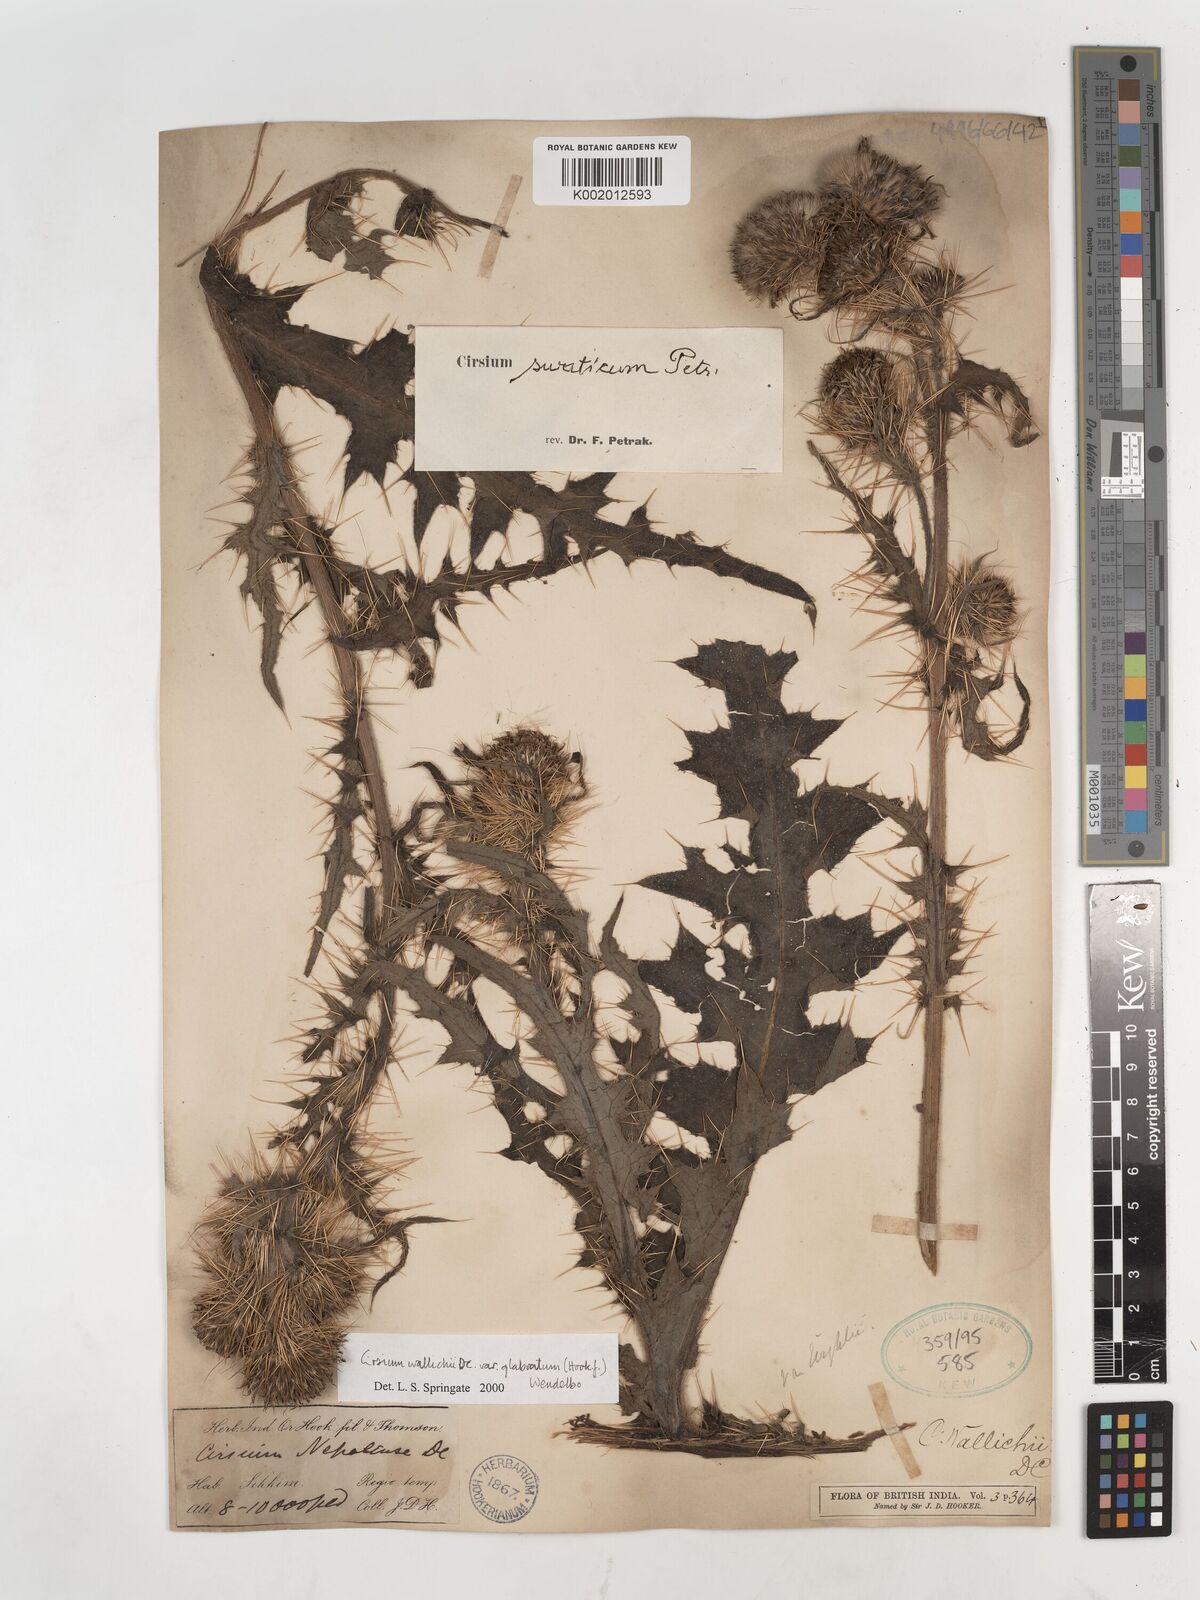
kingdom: Plantae
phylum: Tracheophyta
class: Magnoliopsida
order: Asterales
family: Asteraceae
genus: Cirsium
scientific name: Cirsium wallichii
